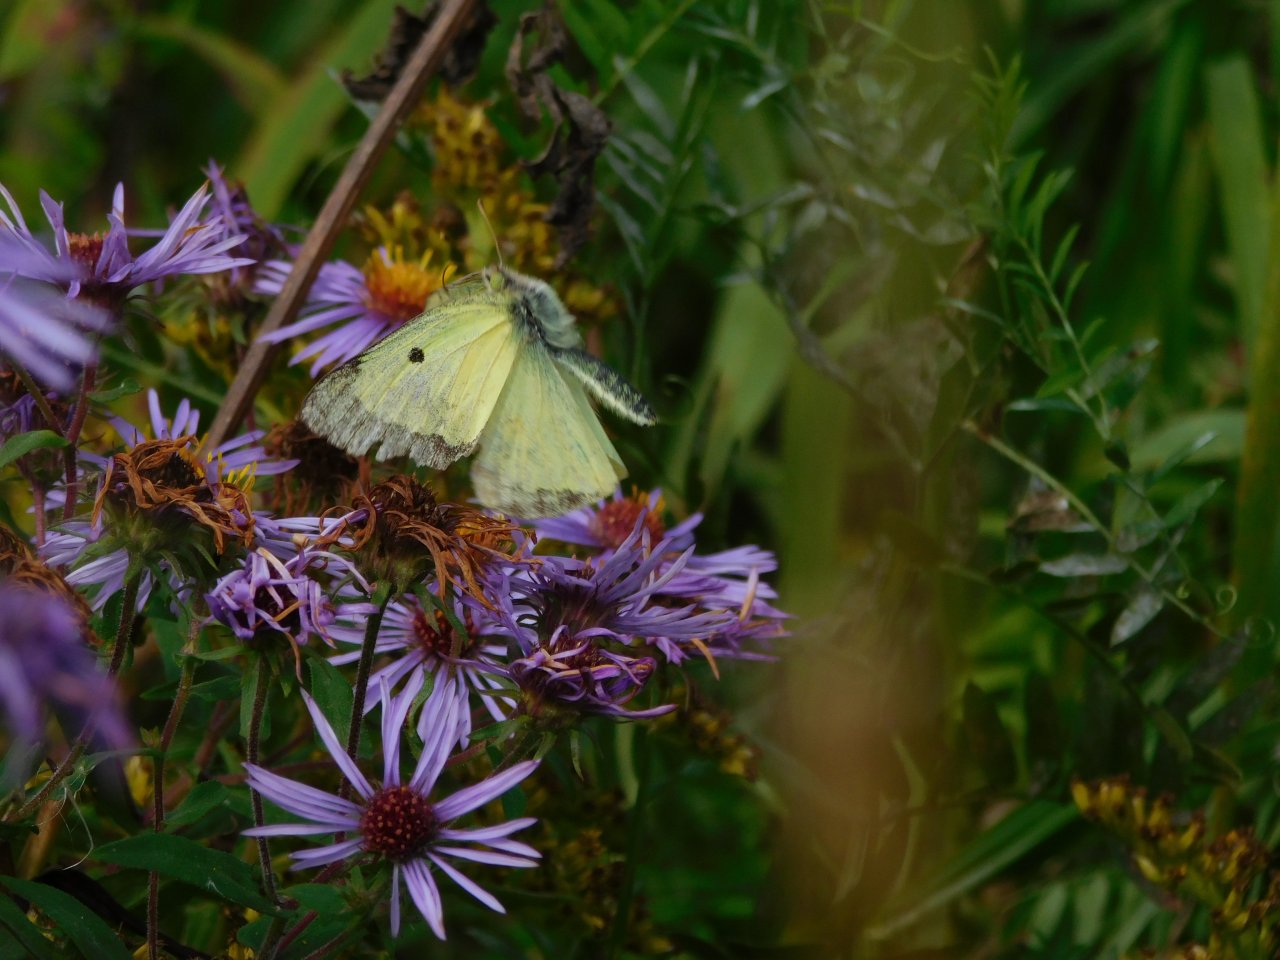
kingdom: Animalia
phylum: Arthropoda
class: Insecta
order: Lepidoptera
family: Pieridae
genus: Colias
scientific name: Colias philodice
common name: Clouded Sulphur
